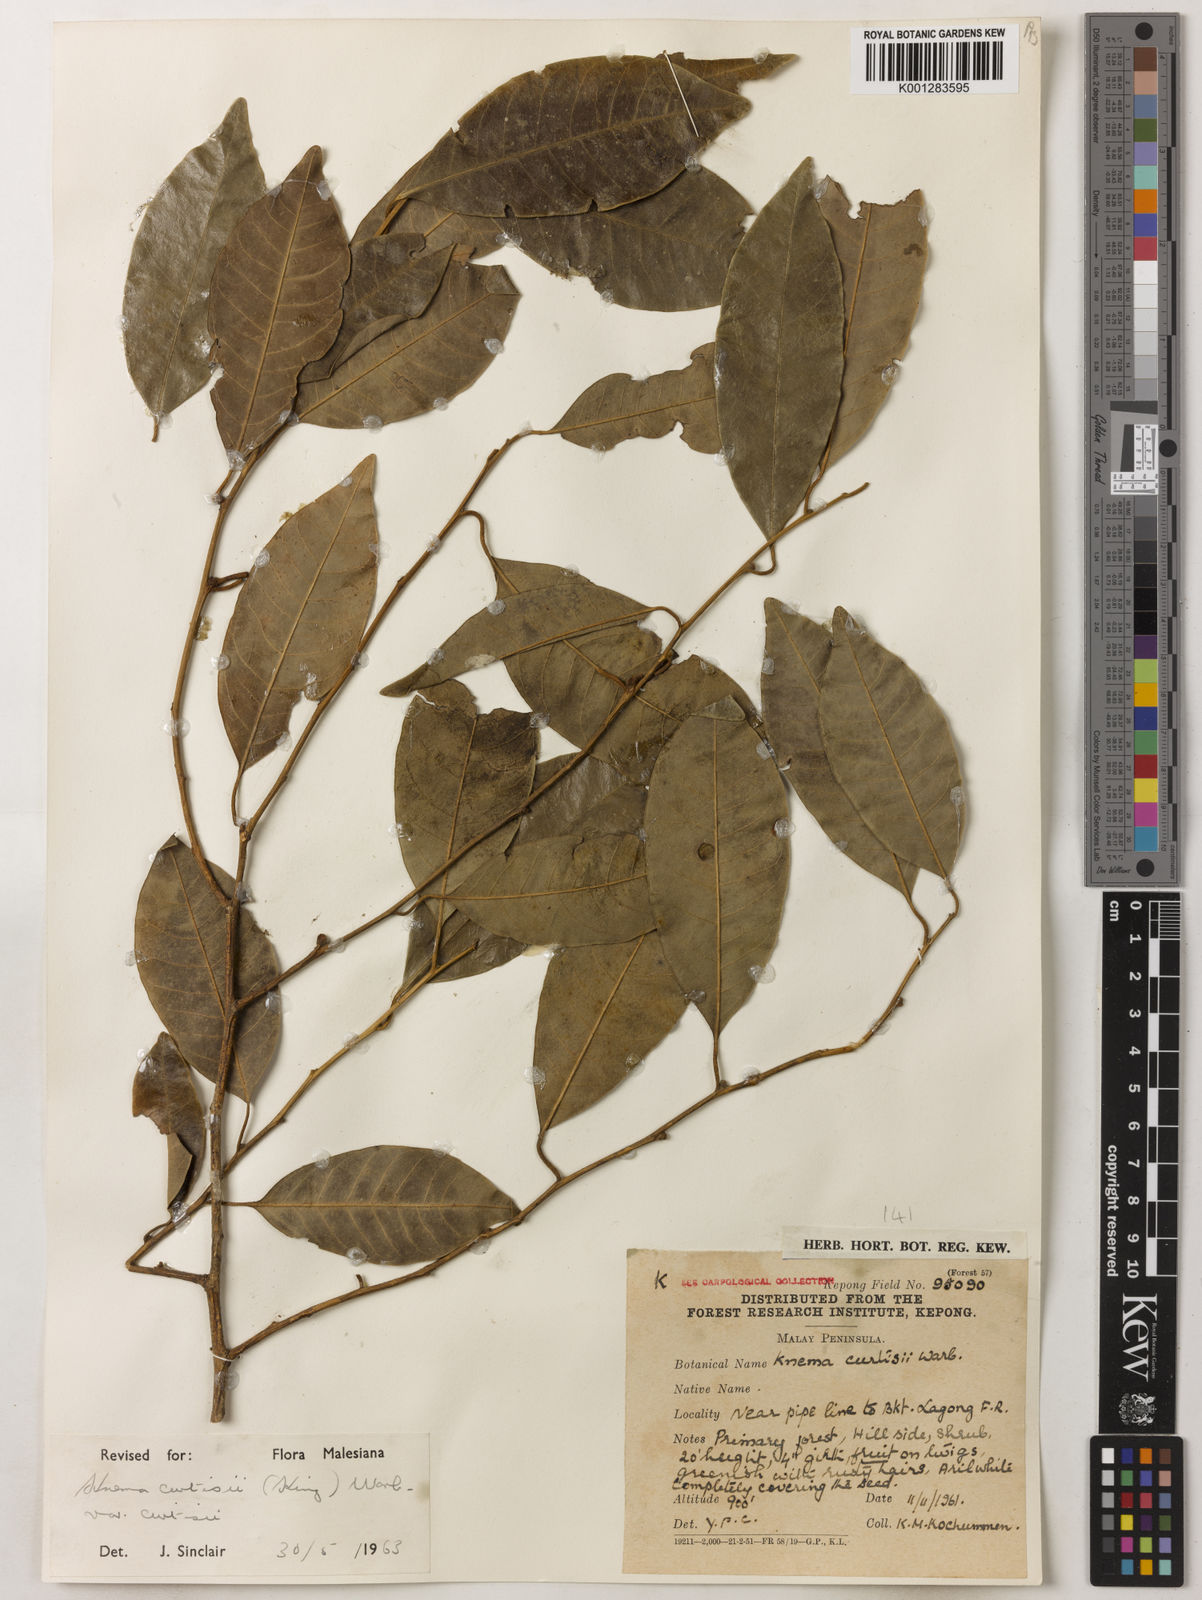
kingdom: Plantae
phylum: Tracheophyta
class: Magnoliopsida
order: Magnoliales
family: Myristicaceae
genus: Knema
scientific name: Knema curtisii
